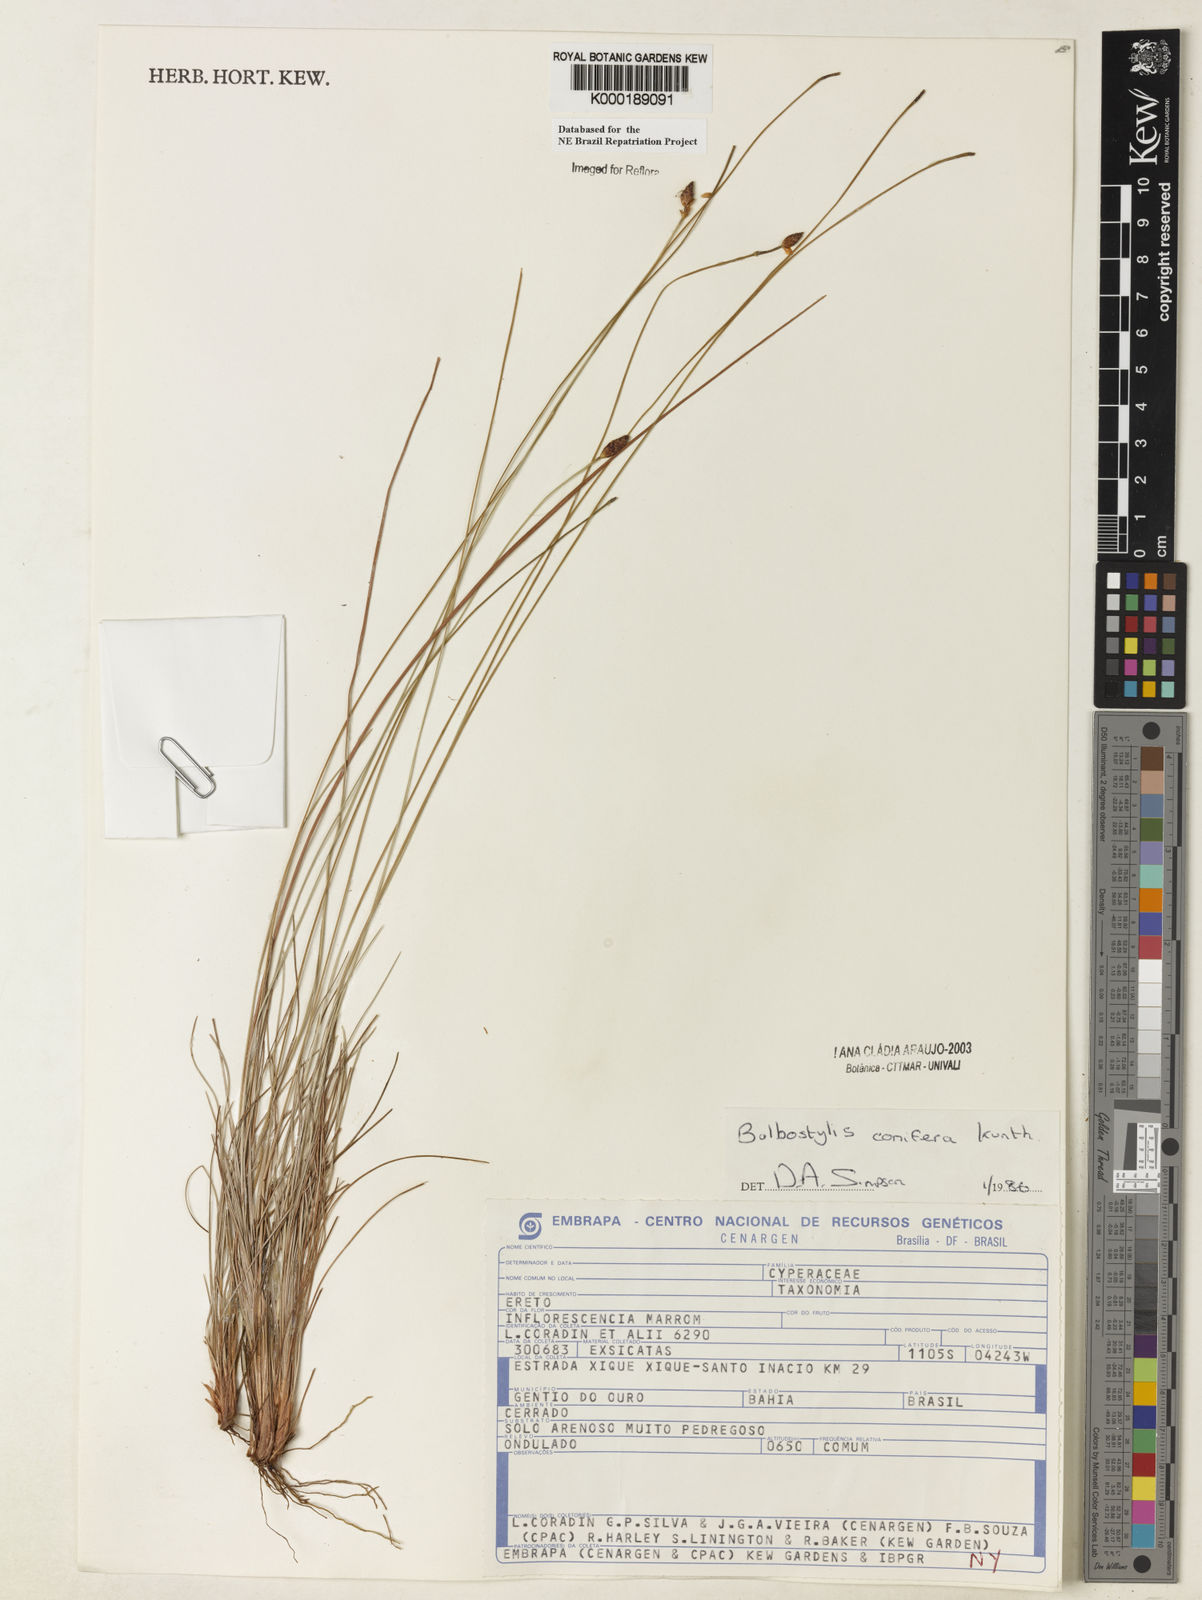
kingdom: Plantae
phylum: Tracheophyta
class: Liliopsida
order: Poales
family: Cyperaceae
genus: Bulbostylis
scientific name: Bulbostylis conifera
